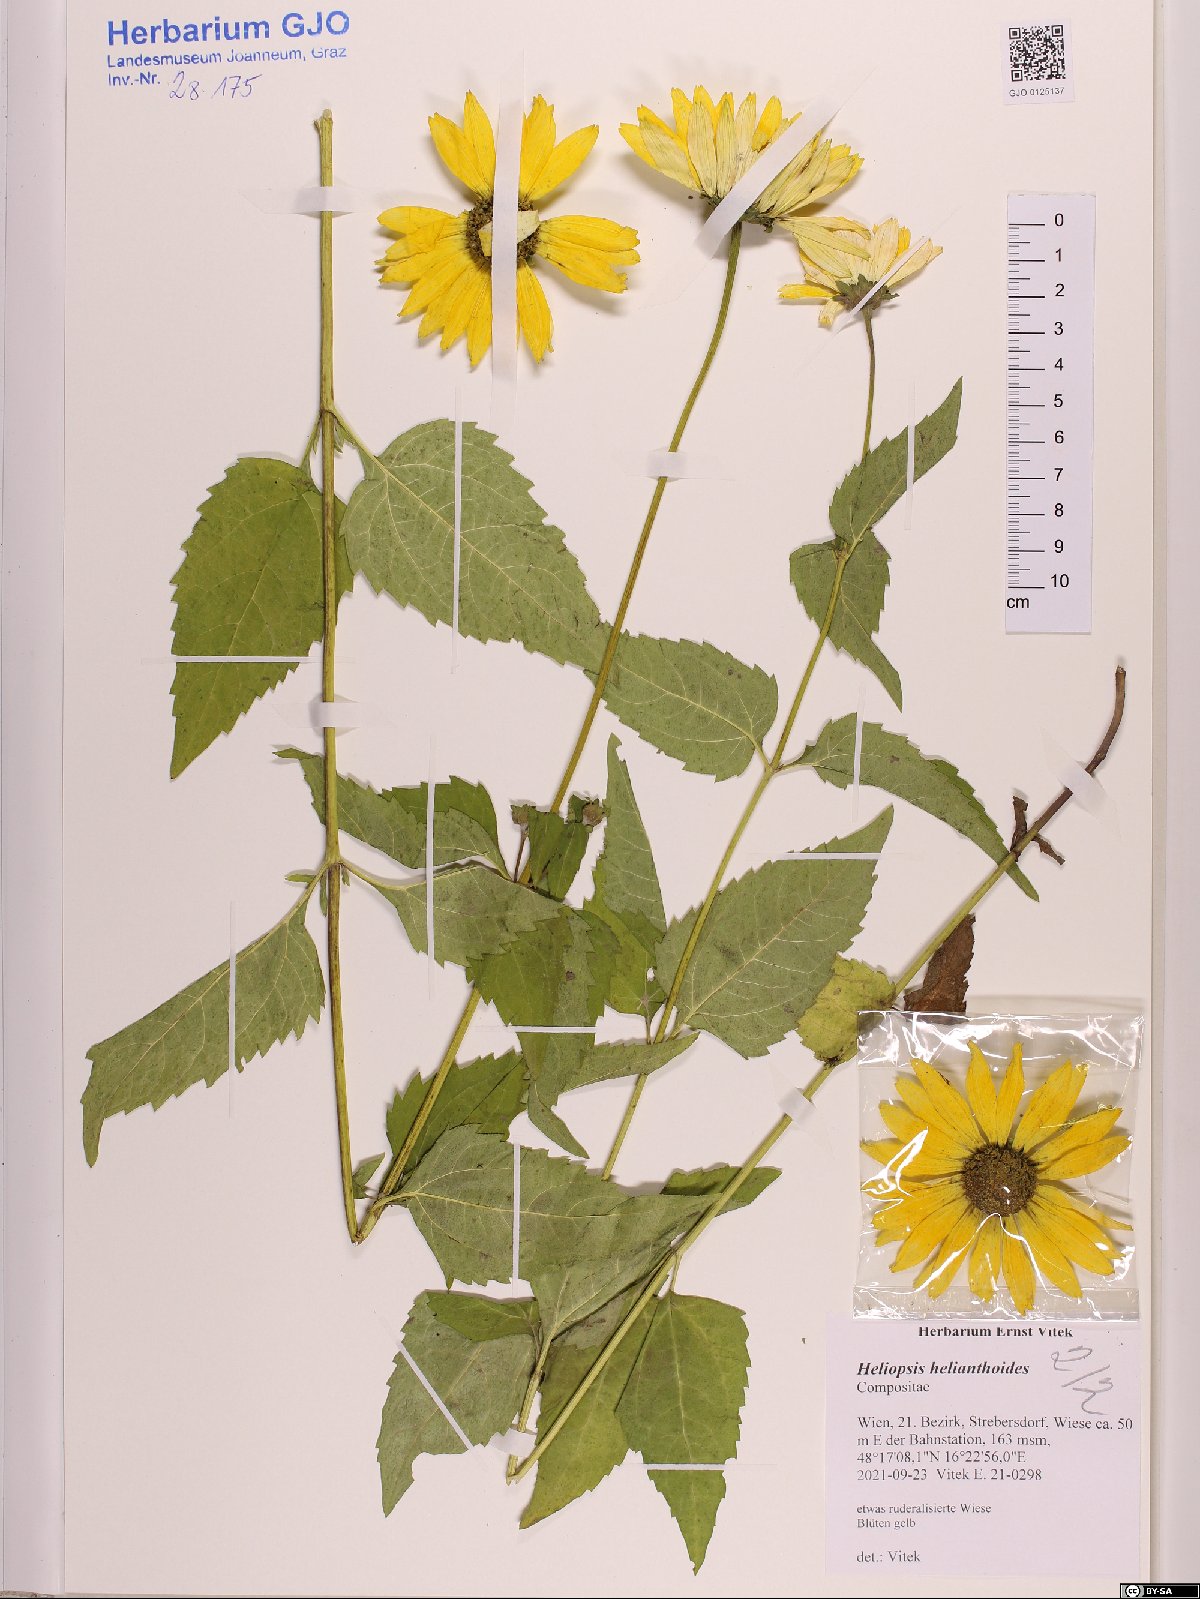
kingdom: Plantae
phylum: Tracheophyta
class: Magnoliopsida
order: Asterales
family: Asteraceae
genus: Heliopsis
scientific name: Heliopsis helianthoides
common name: False sunflower
